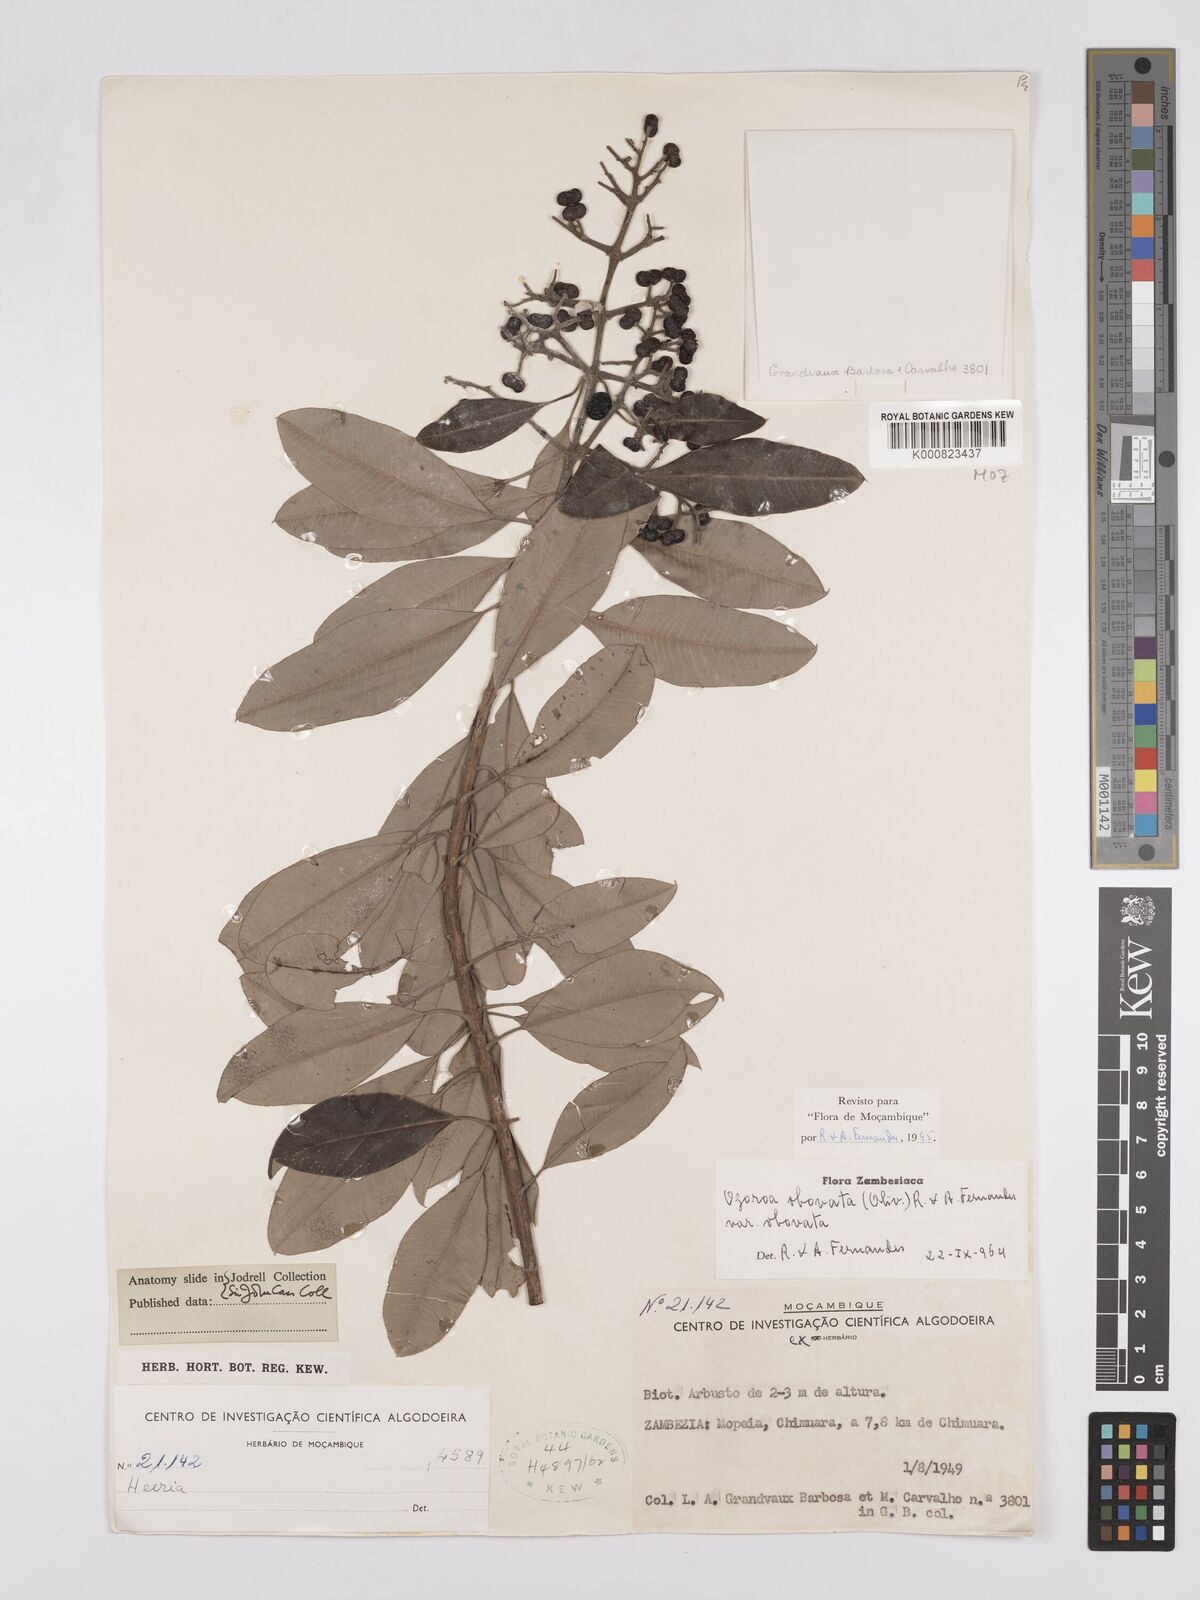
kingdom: Plantae
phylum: Tracheophyta
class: Magnoliopsida
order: Sapindales
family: Anacardiaceae
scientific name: Anacardiaceae
